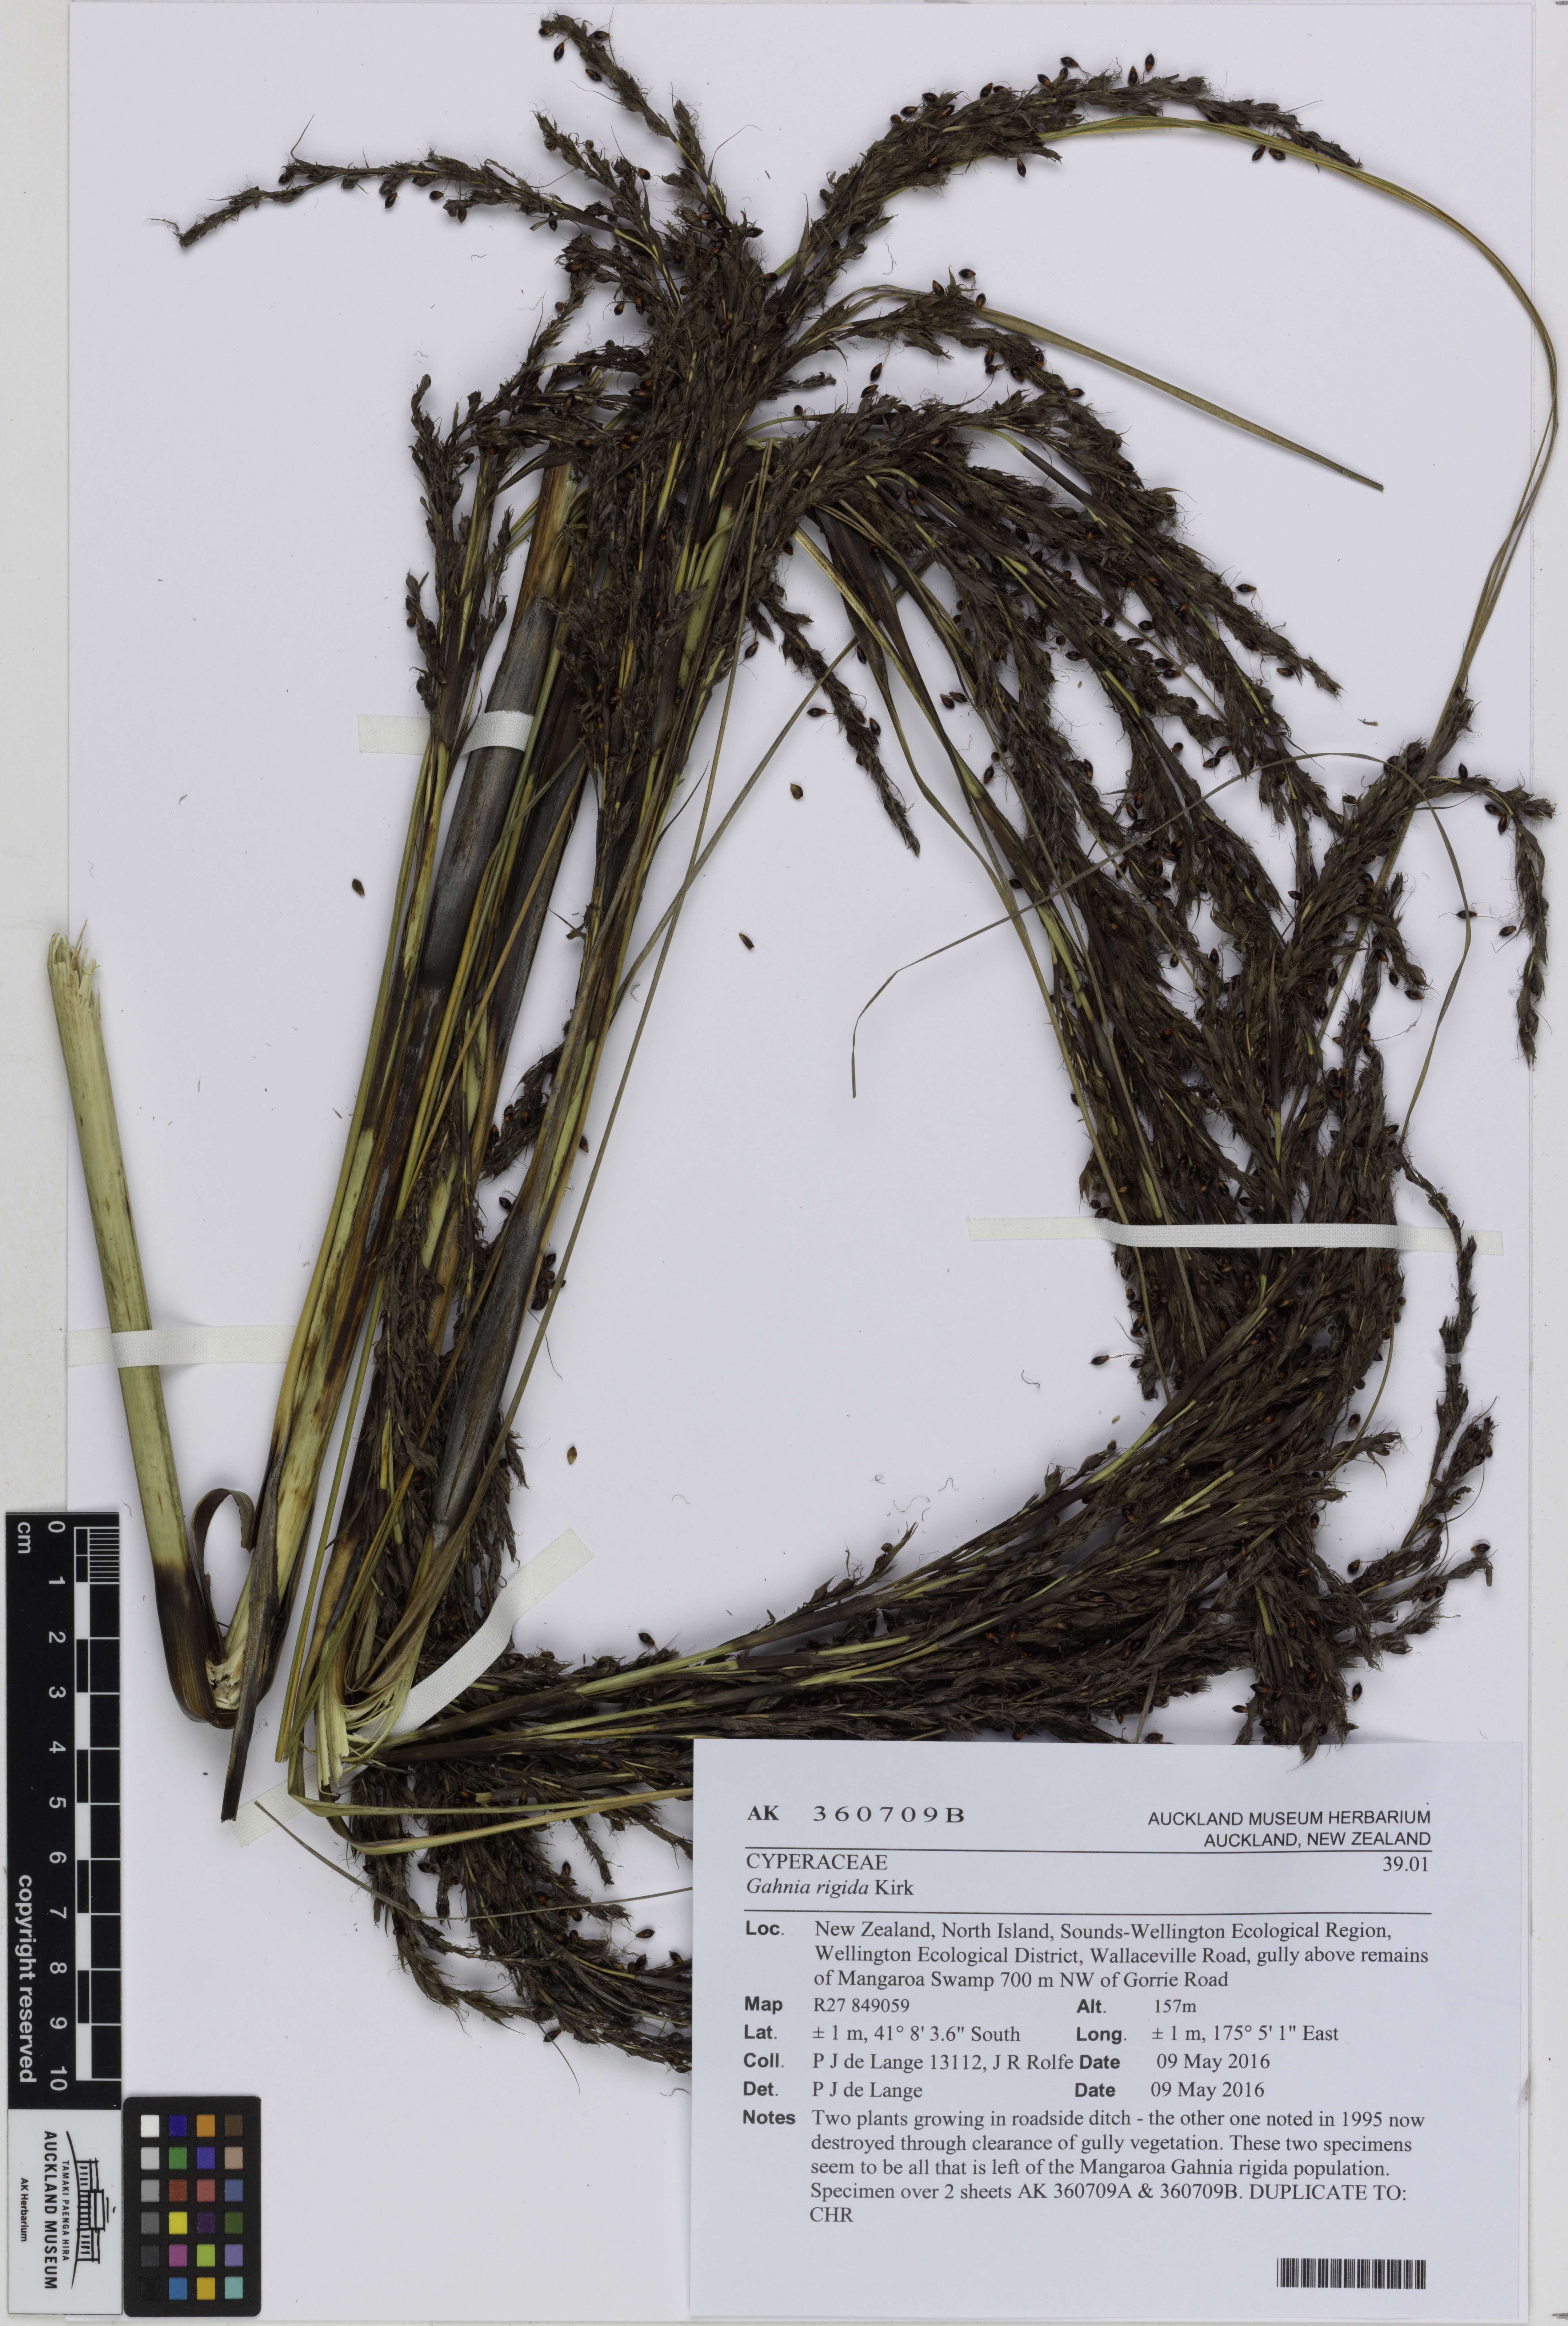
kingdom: Plantae
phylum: Tracheophyta
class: Liliopsida
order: Poales
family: Cyperaceae
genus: Gahnia
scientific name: Gahnia rigida
